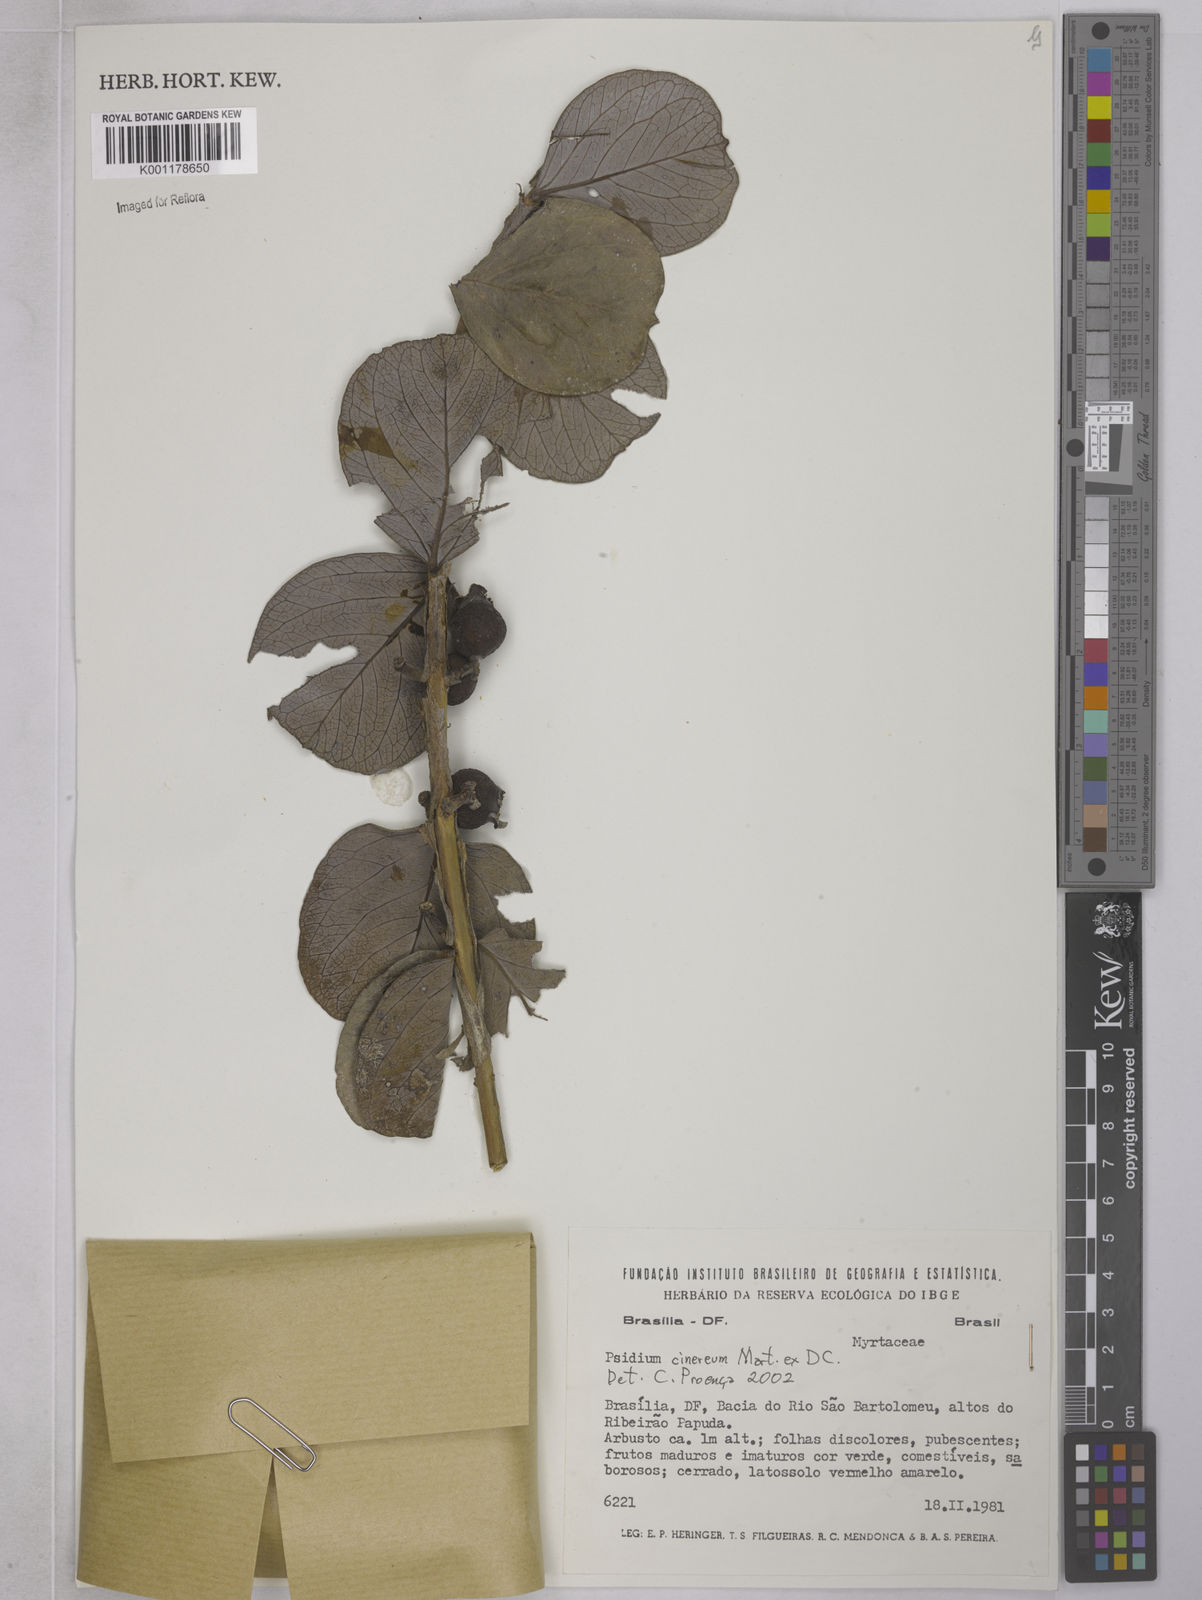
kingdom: Plantae
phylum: Tracheophyta
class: Magnoliopsida
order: Myrtales
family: Myrtaceae
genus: Psidium
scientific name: Psidium grandifolium
